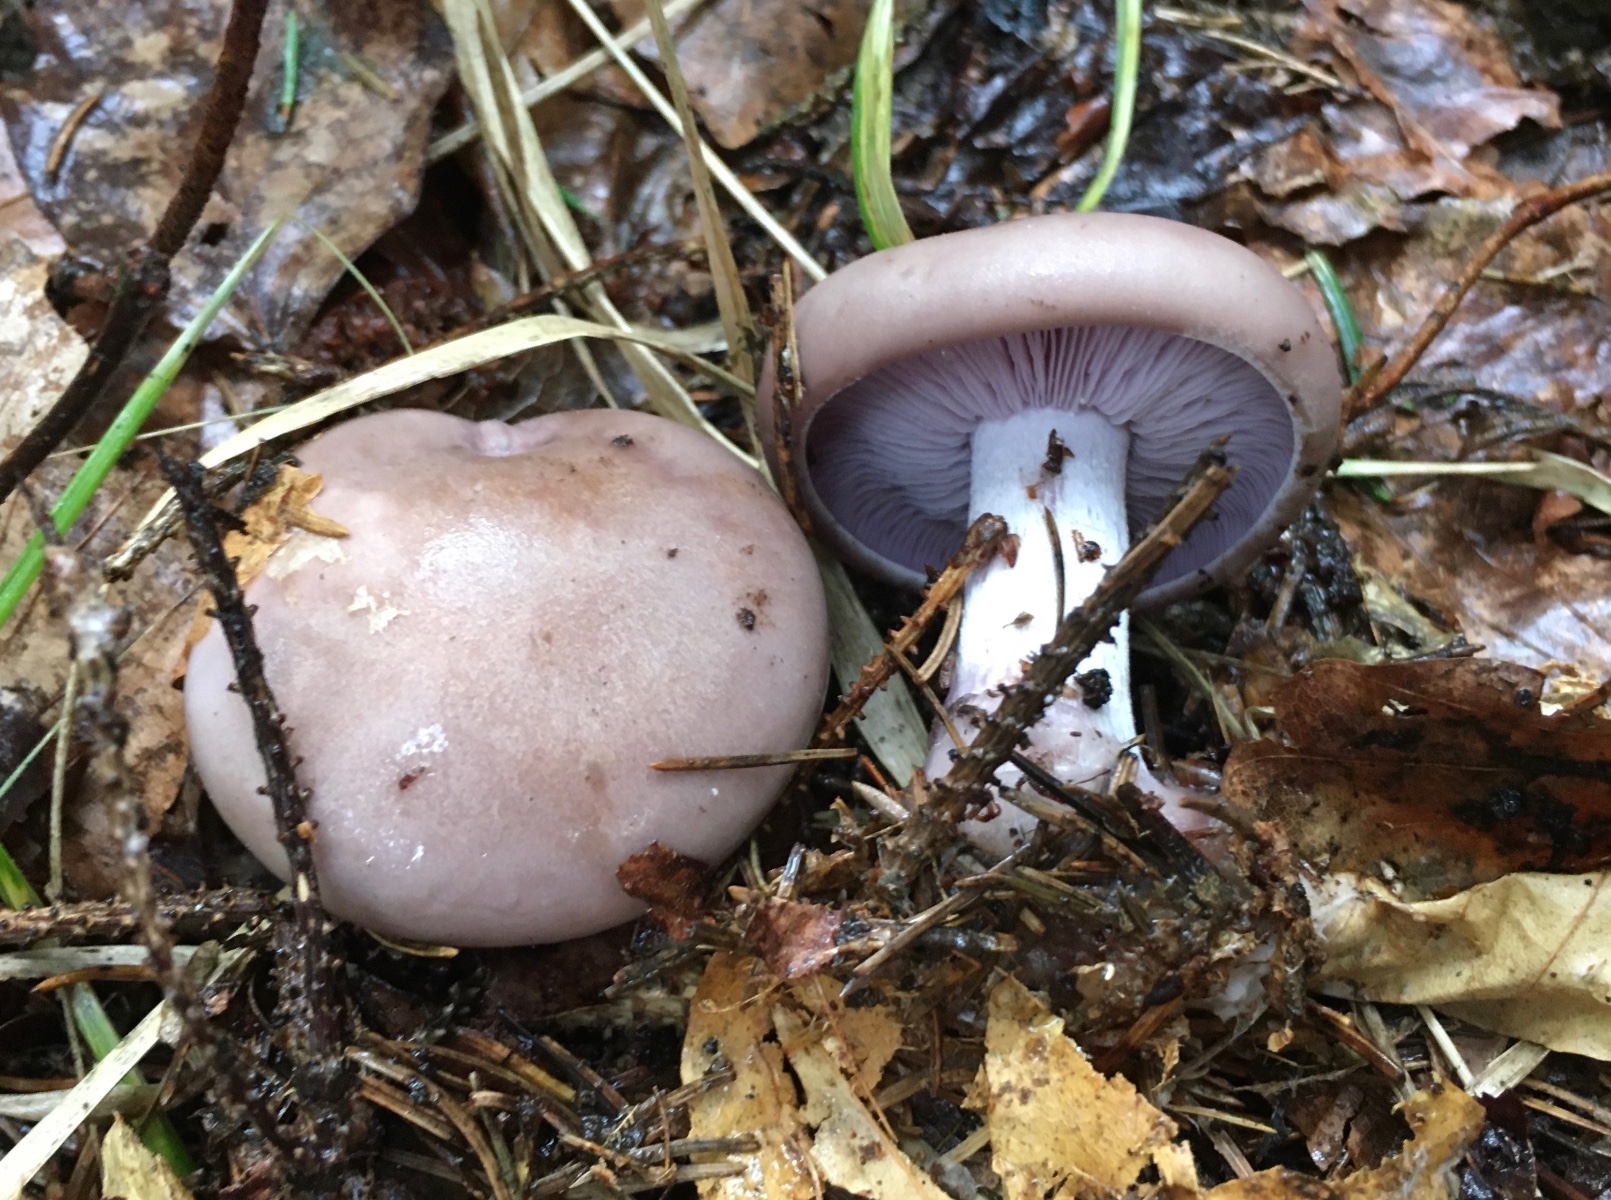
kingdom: Fungi
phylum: Basidiomycota
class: Agaricomycetes
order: Agaricales
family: Tricholomataceae
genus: Lepista
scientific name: Lepista nuda
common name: violet hekseringshat
